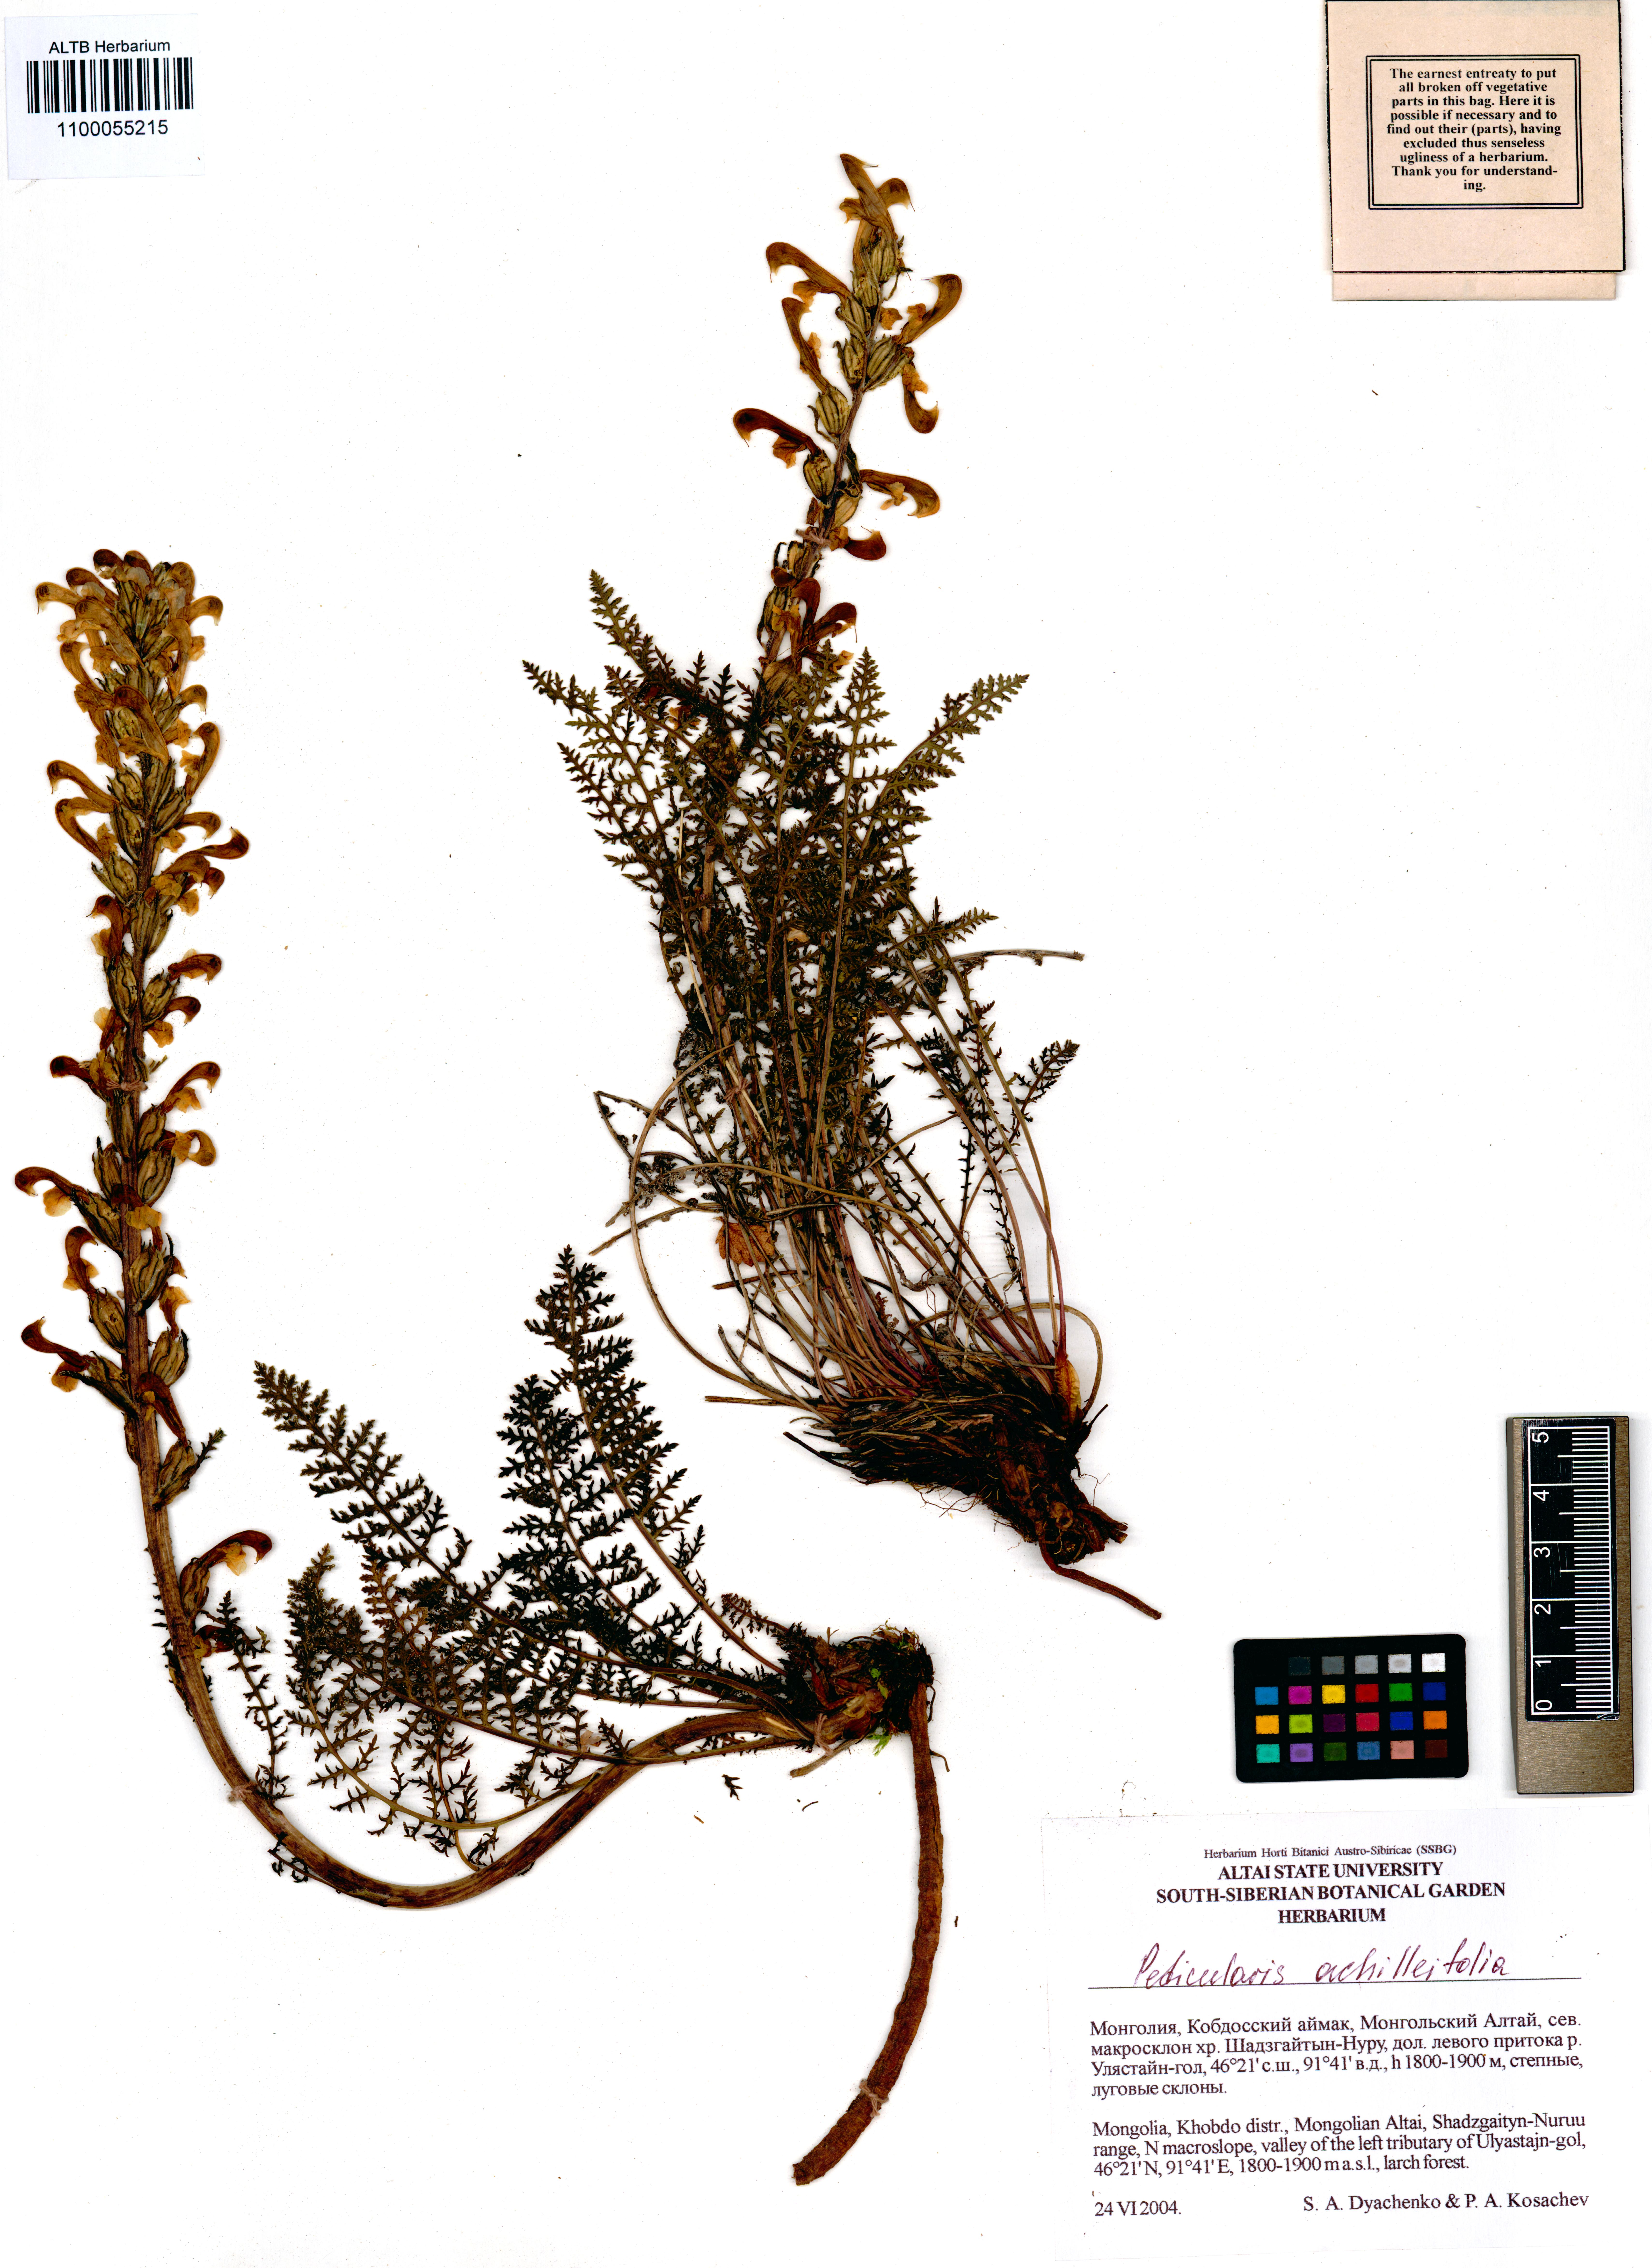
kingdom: Plantae
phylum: Tracheophyta
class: Magnoliopsida
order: Lamiales
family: Orobanchaceae
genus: Pedicularis
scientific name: Pedicularis achilleifolia
